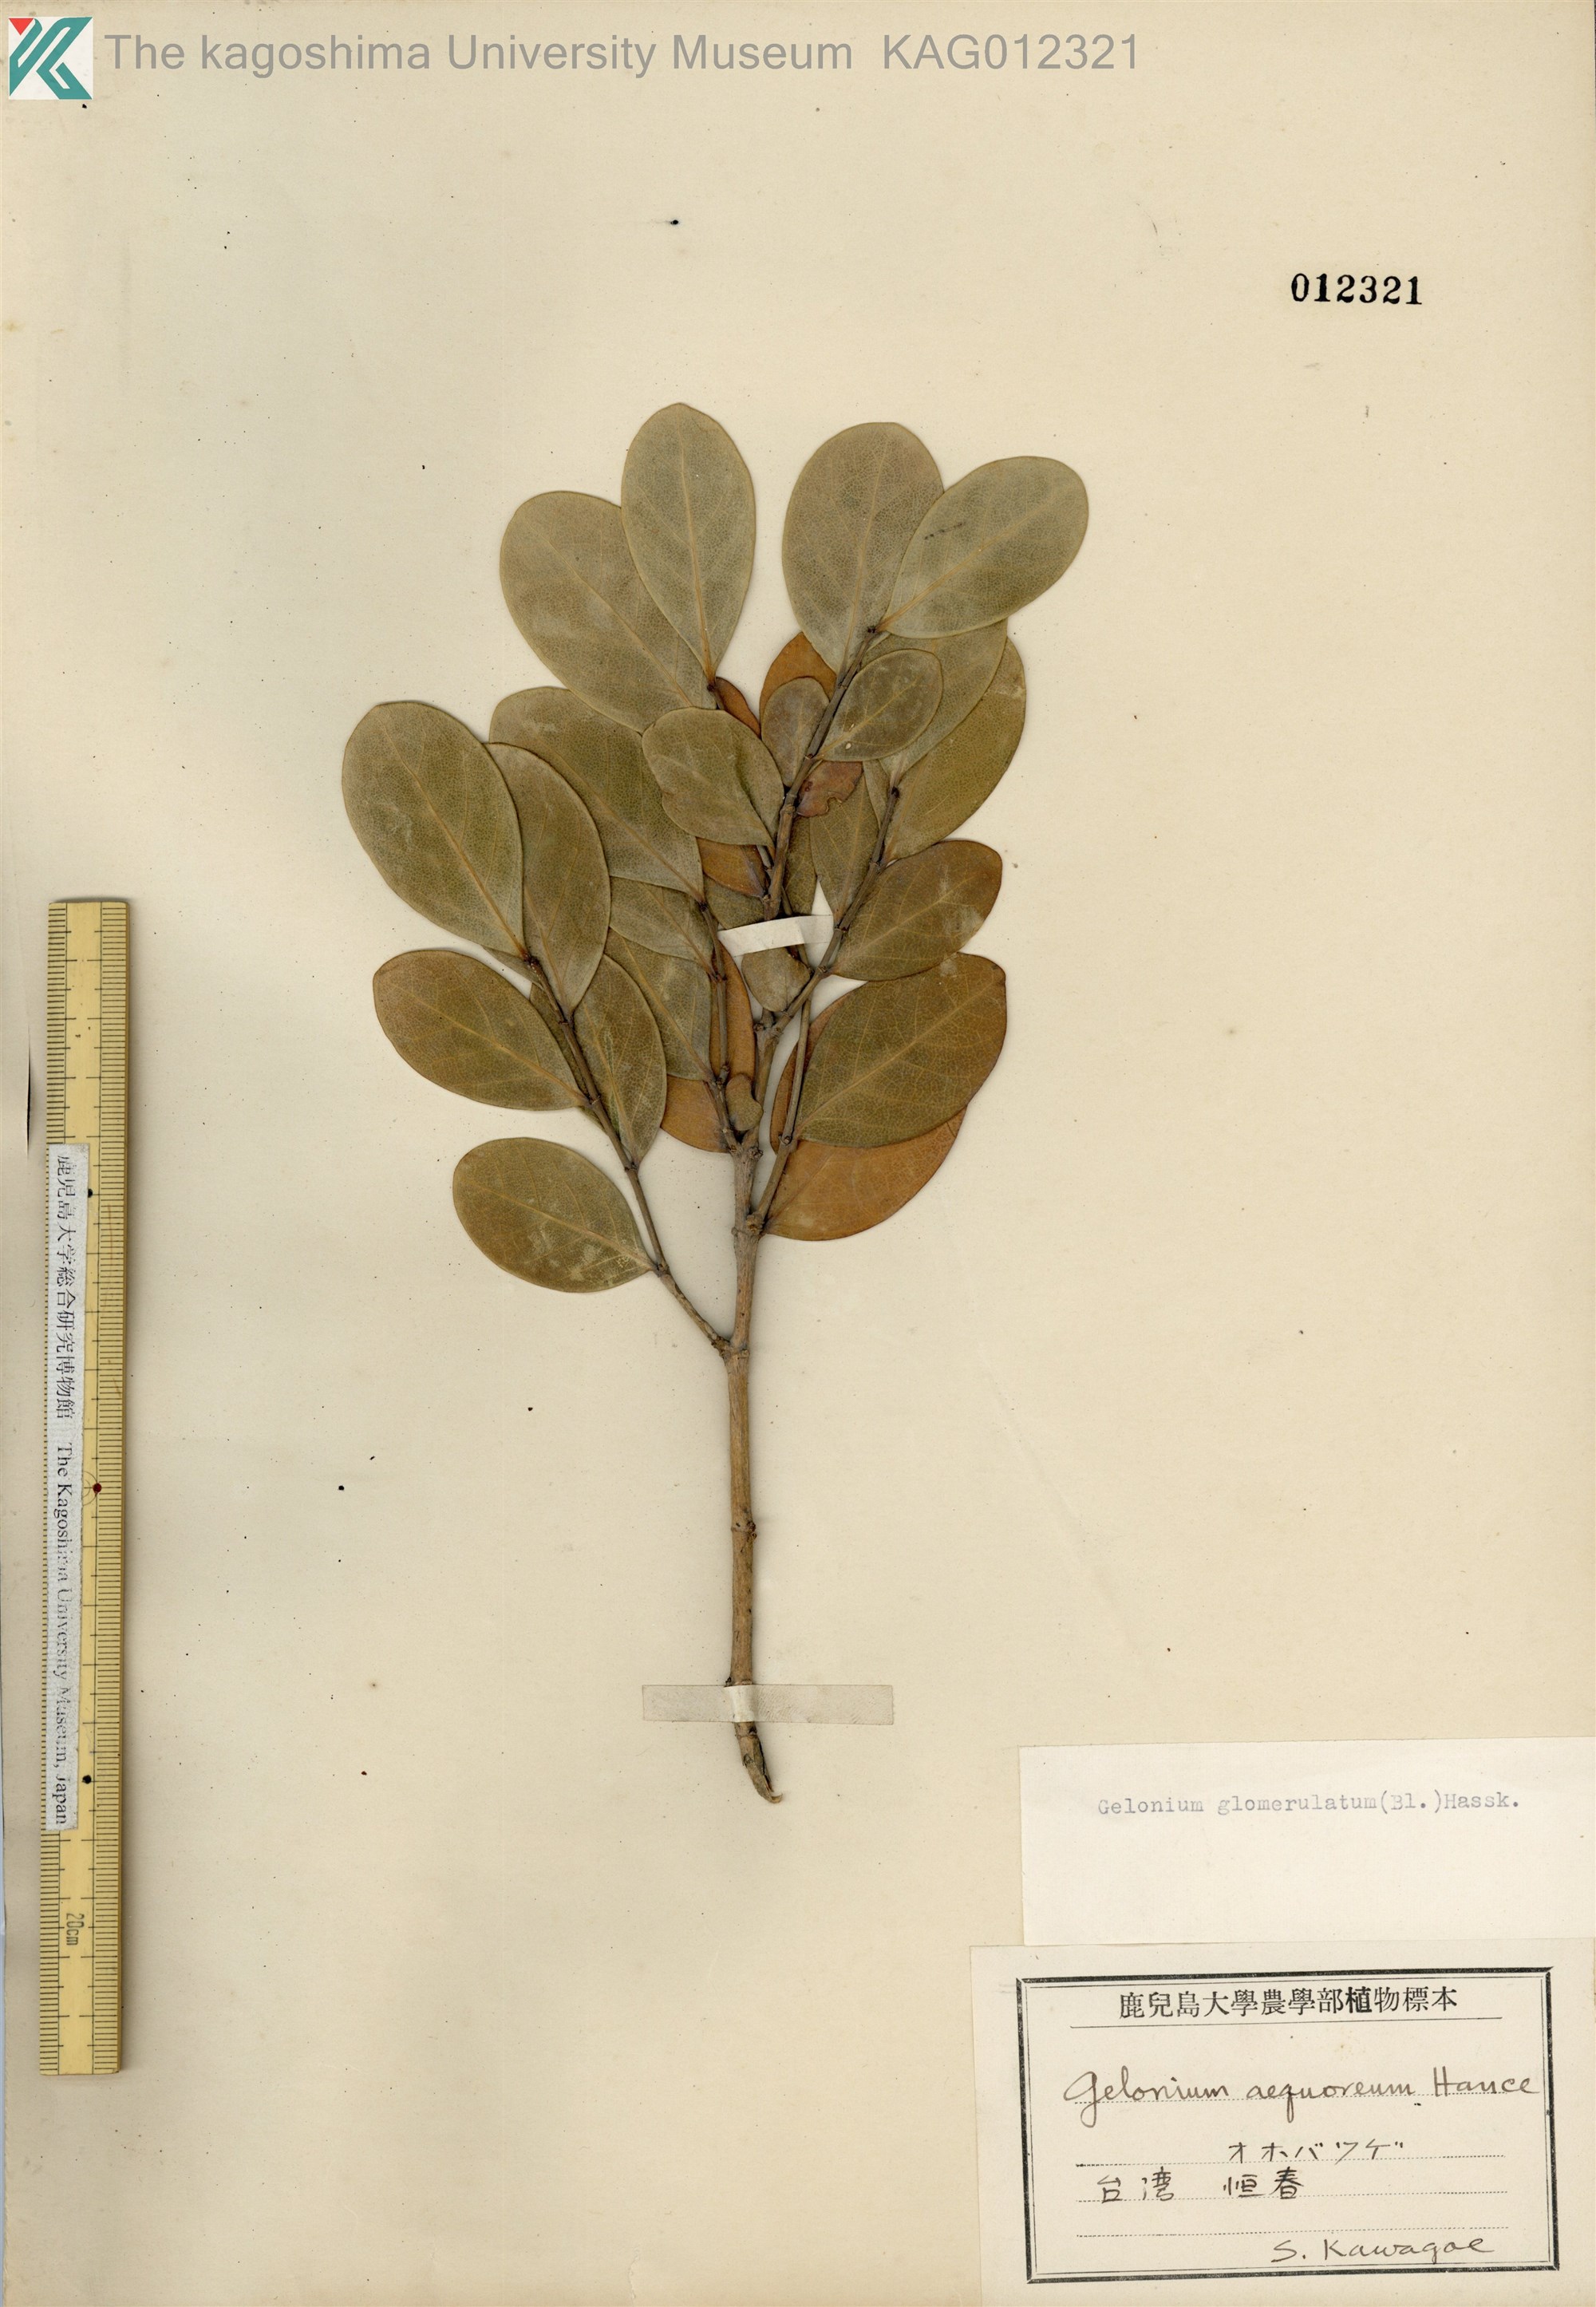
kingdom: Plantae
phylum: Tracheophyta
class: Magnoliopsida
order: Malpighiales
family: Phyllanthaceae
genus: Glochidion
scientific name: Glochidion glomerulatum
